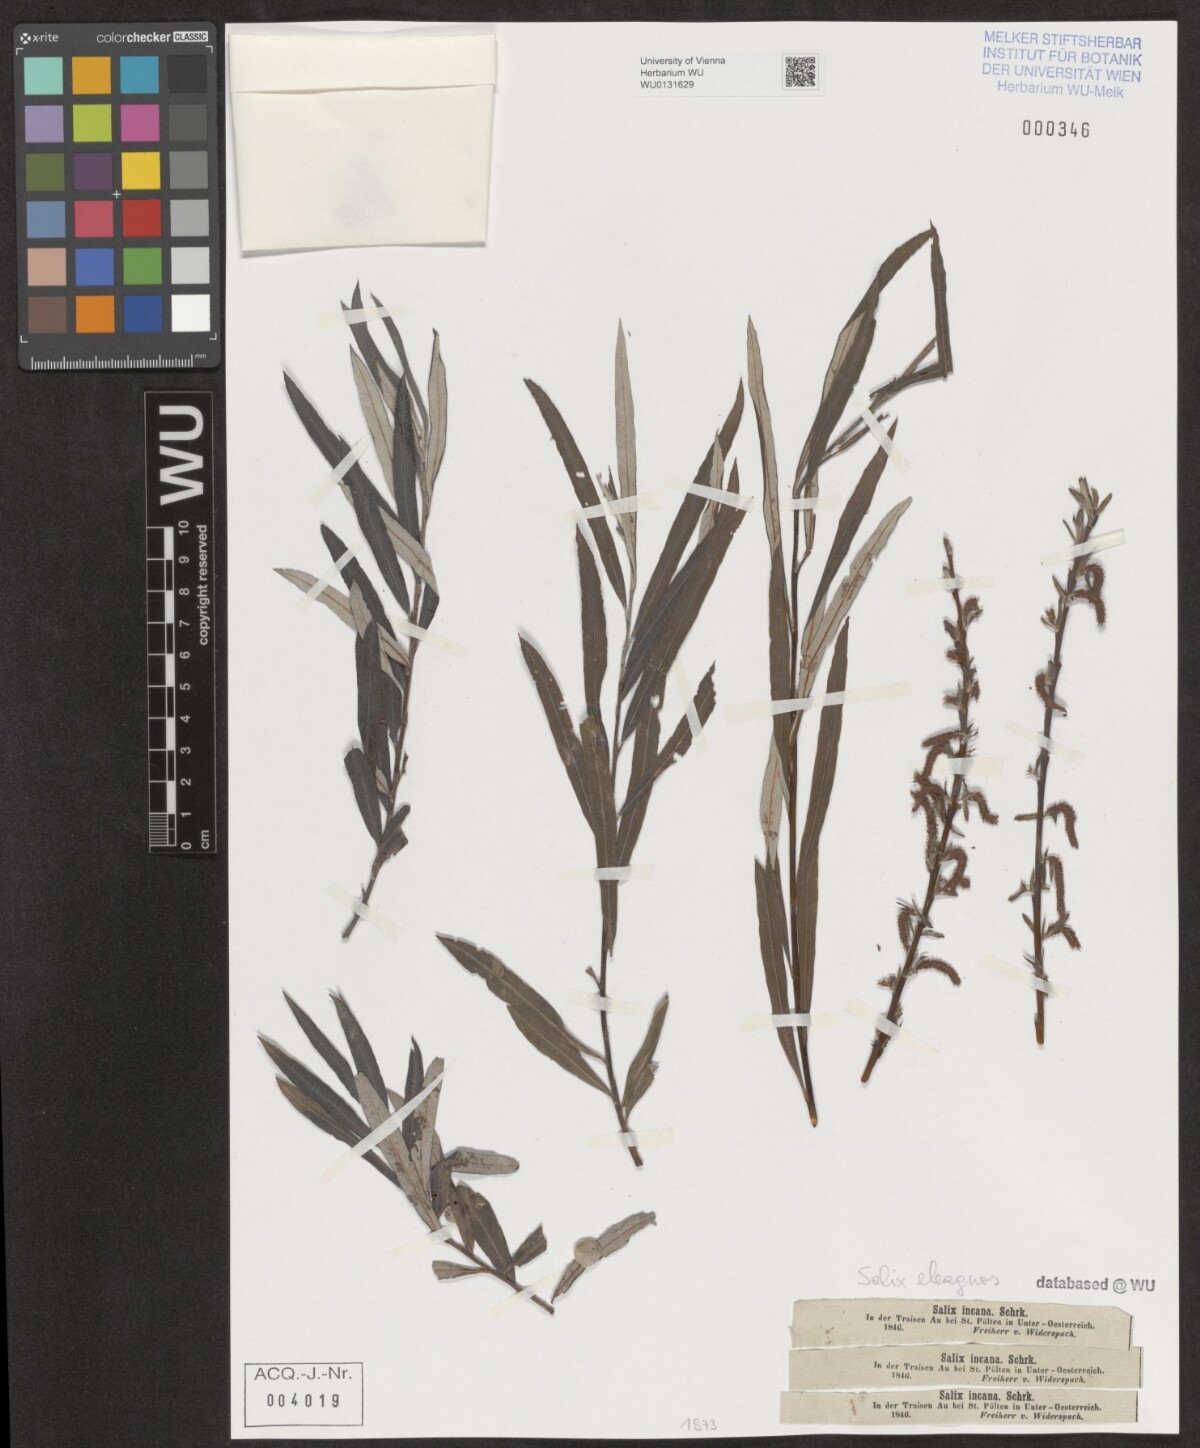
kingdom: Plantae
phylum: Tracheophyta
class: Magnoliopsida
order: Malpighiales
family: Salicaceae
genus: Salix
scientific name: Salix eleagnos
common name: Elaeagnus willow
